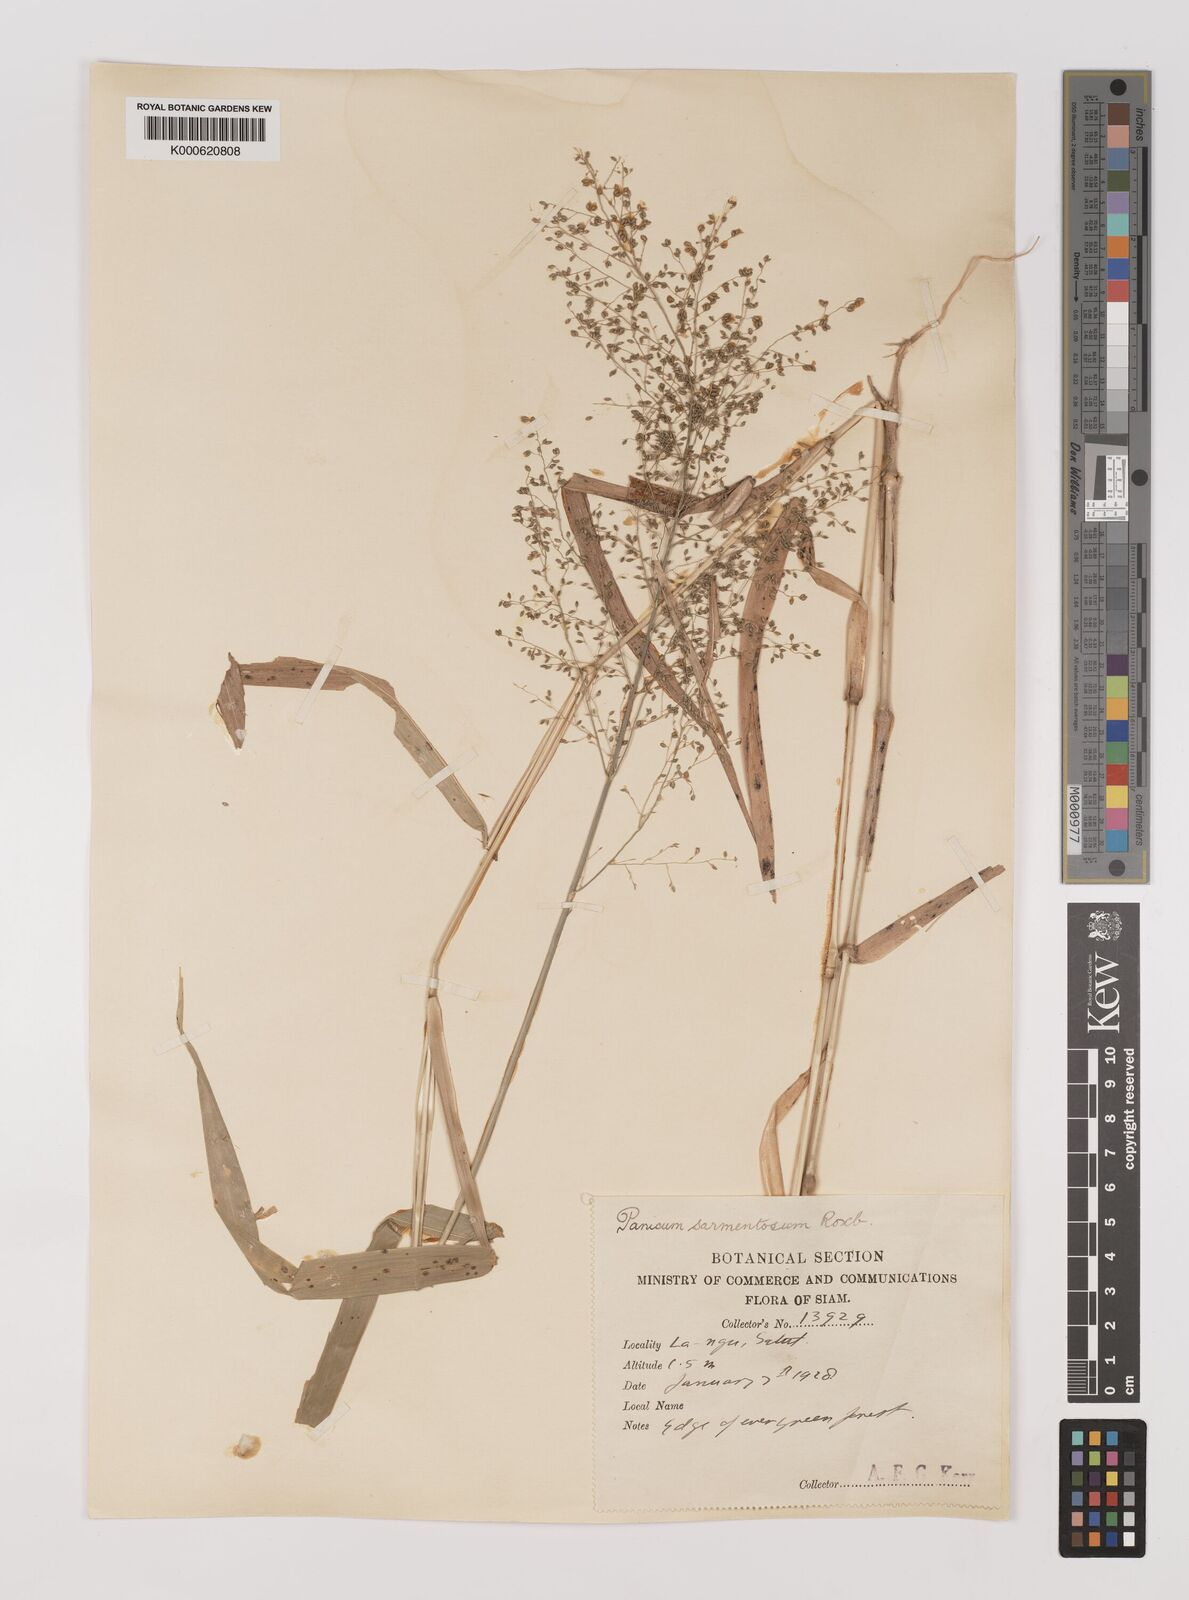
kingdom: Plantae
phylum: Tracheophyta
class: Liliopsida
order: Poales
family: Poaceae
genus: Panicum
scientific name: Panicum sarmentosum
